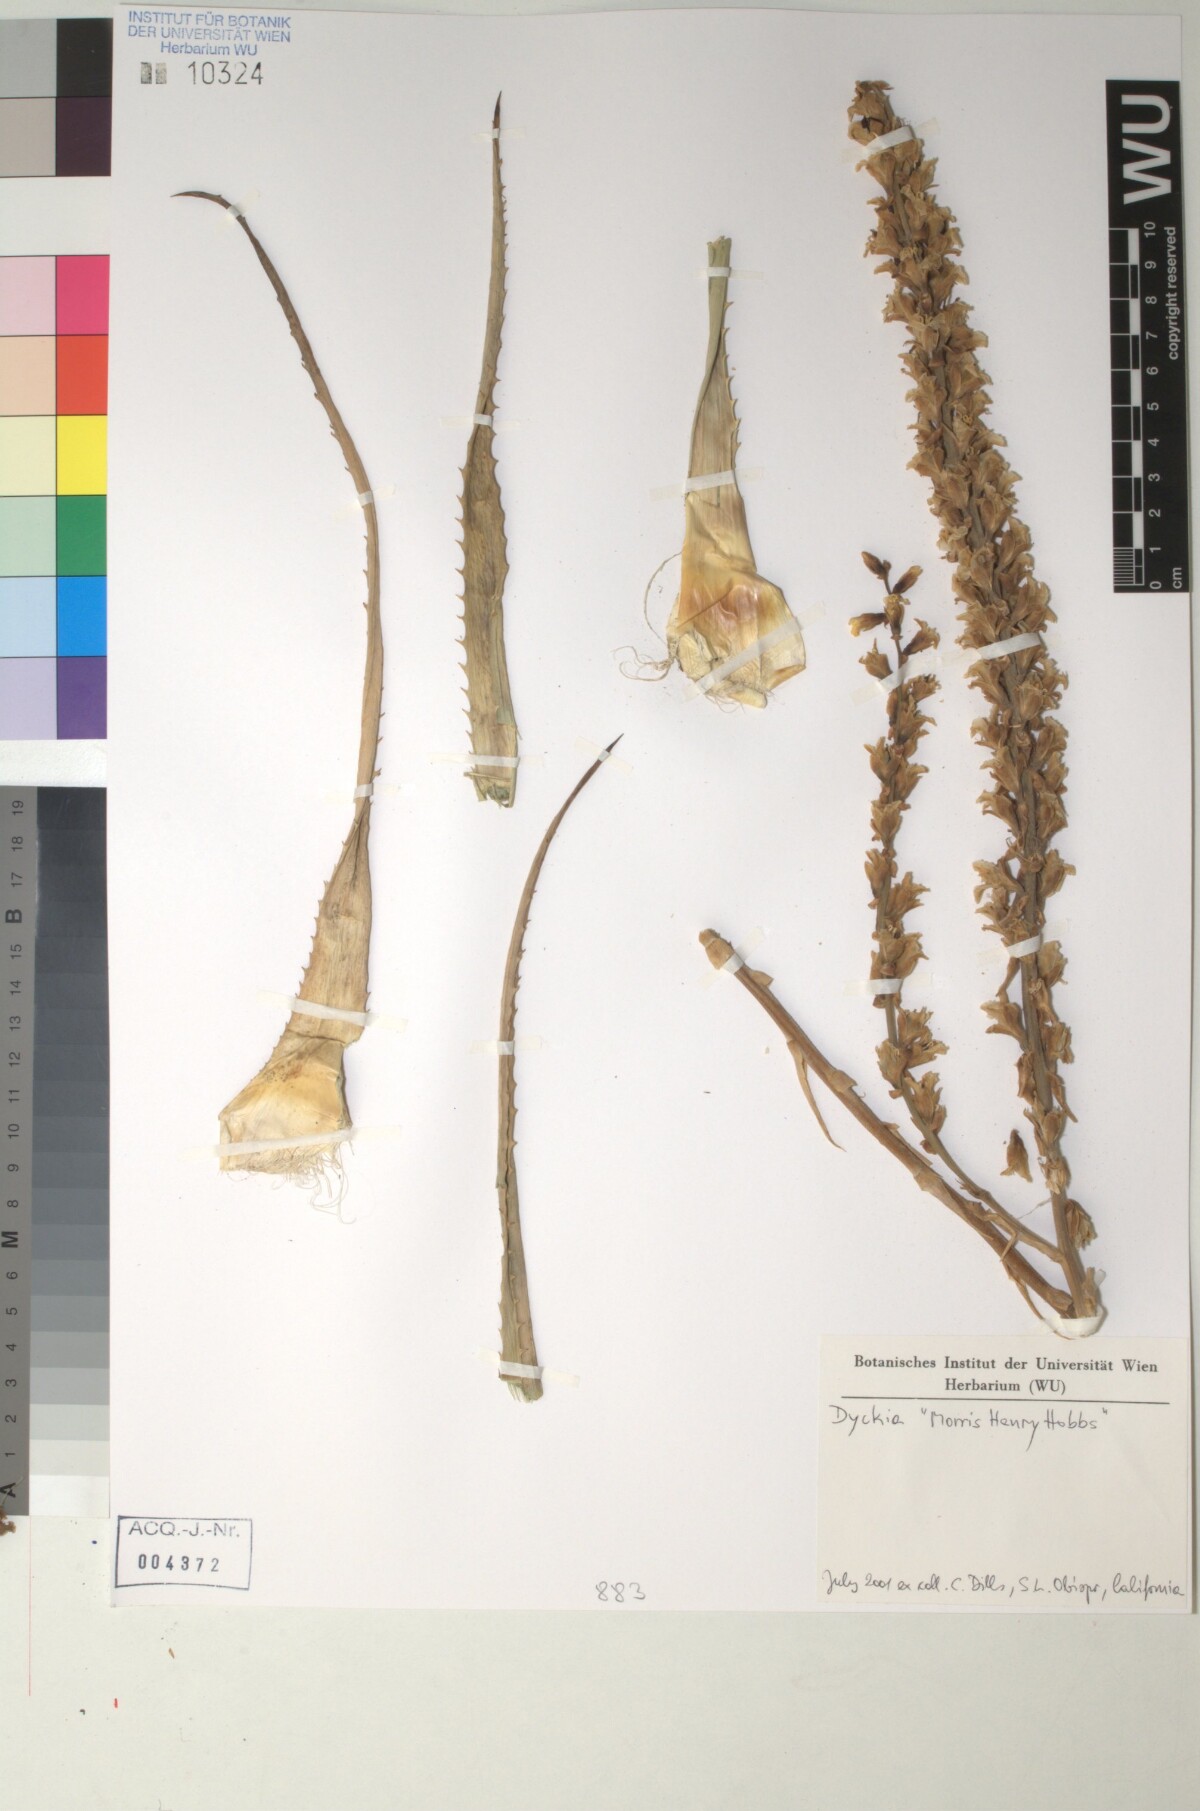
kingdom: Plantae
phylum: Tracheophyta
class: Liliopsida
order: Poales
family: Bromeliaceae
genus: Dyckia
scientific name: Dyckia
